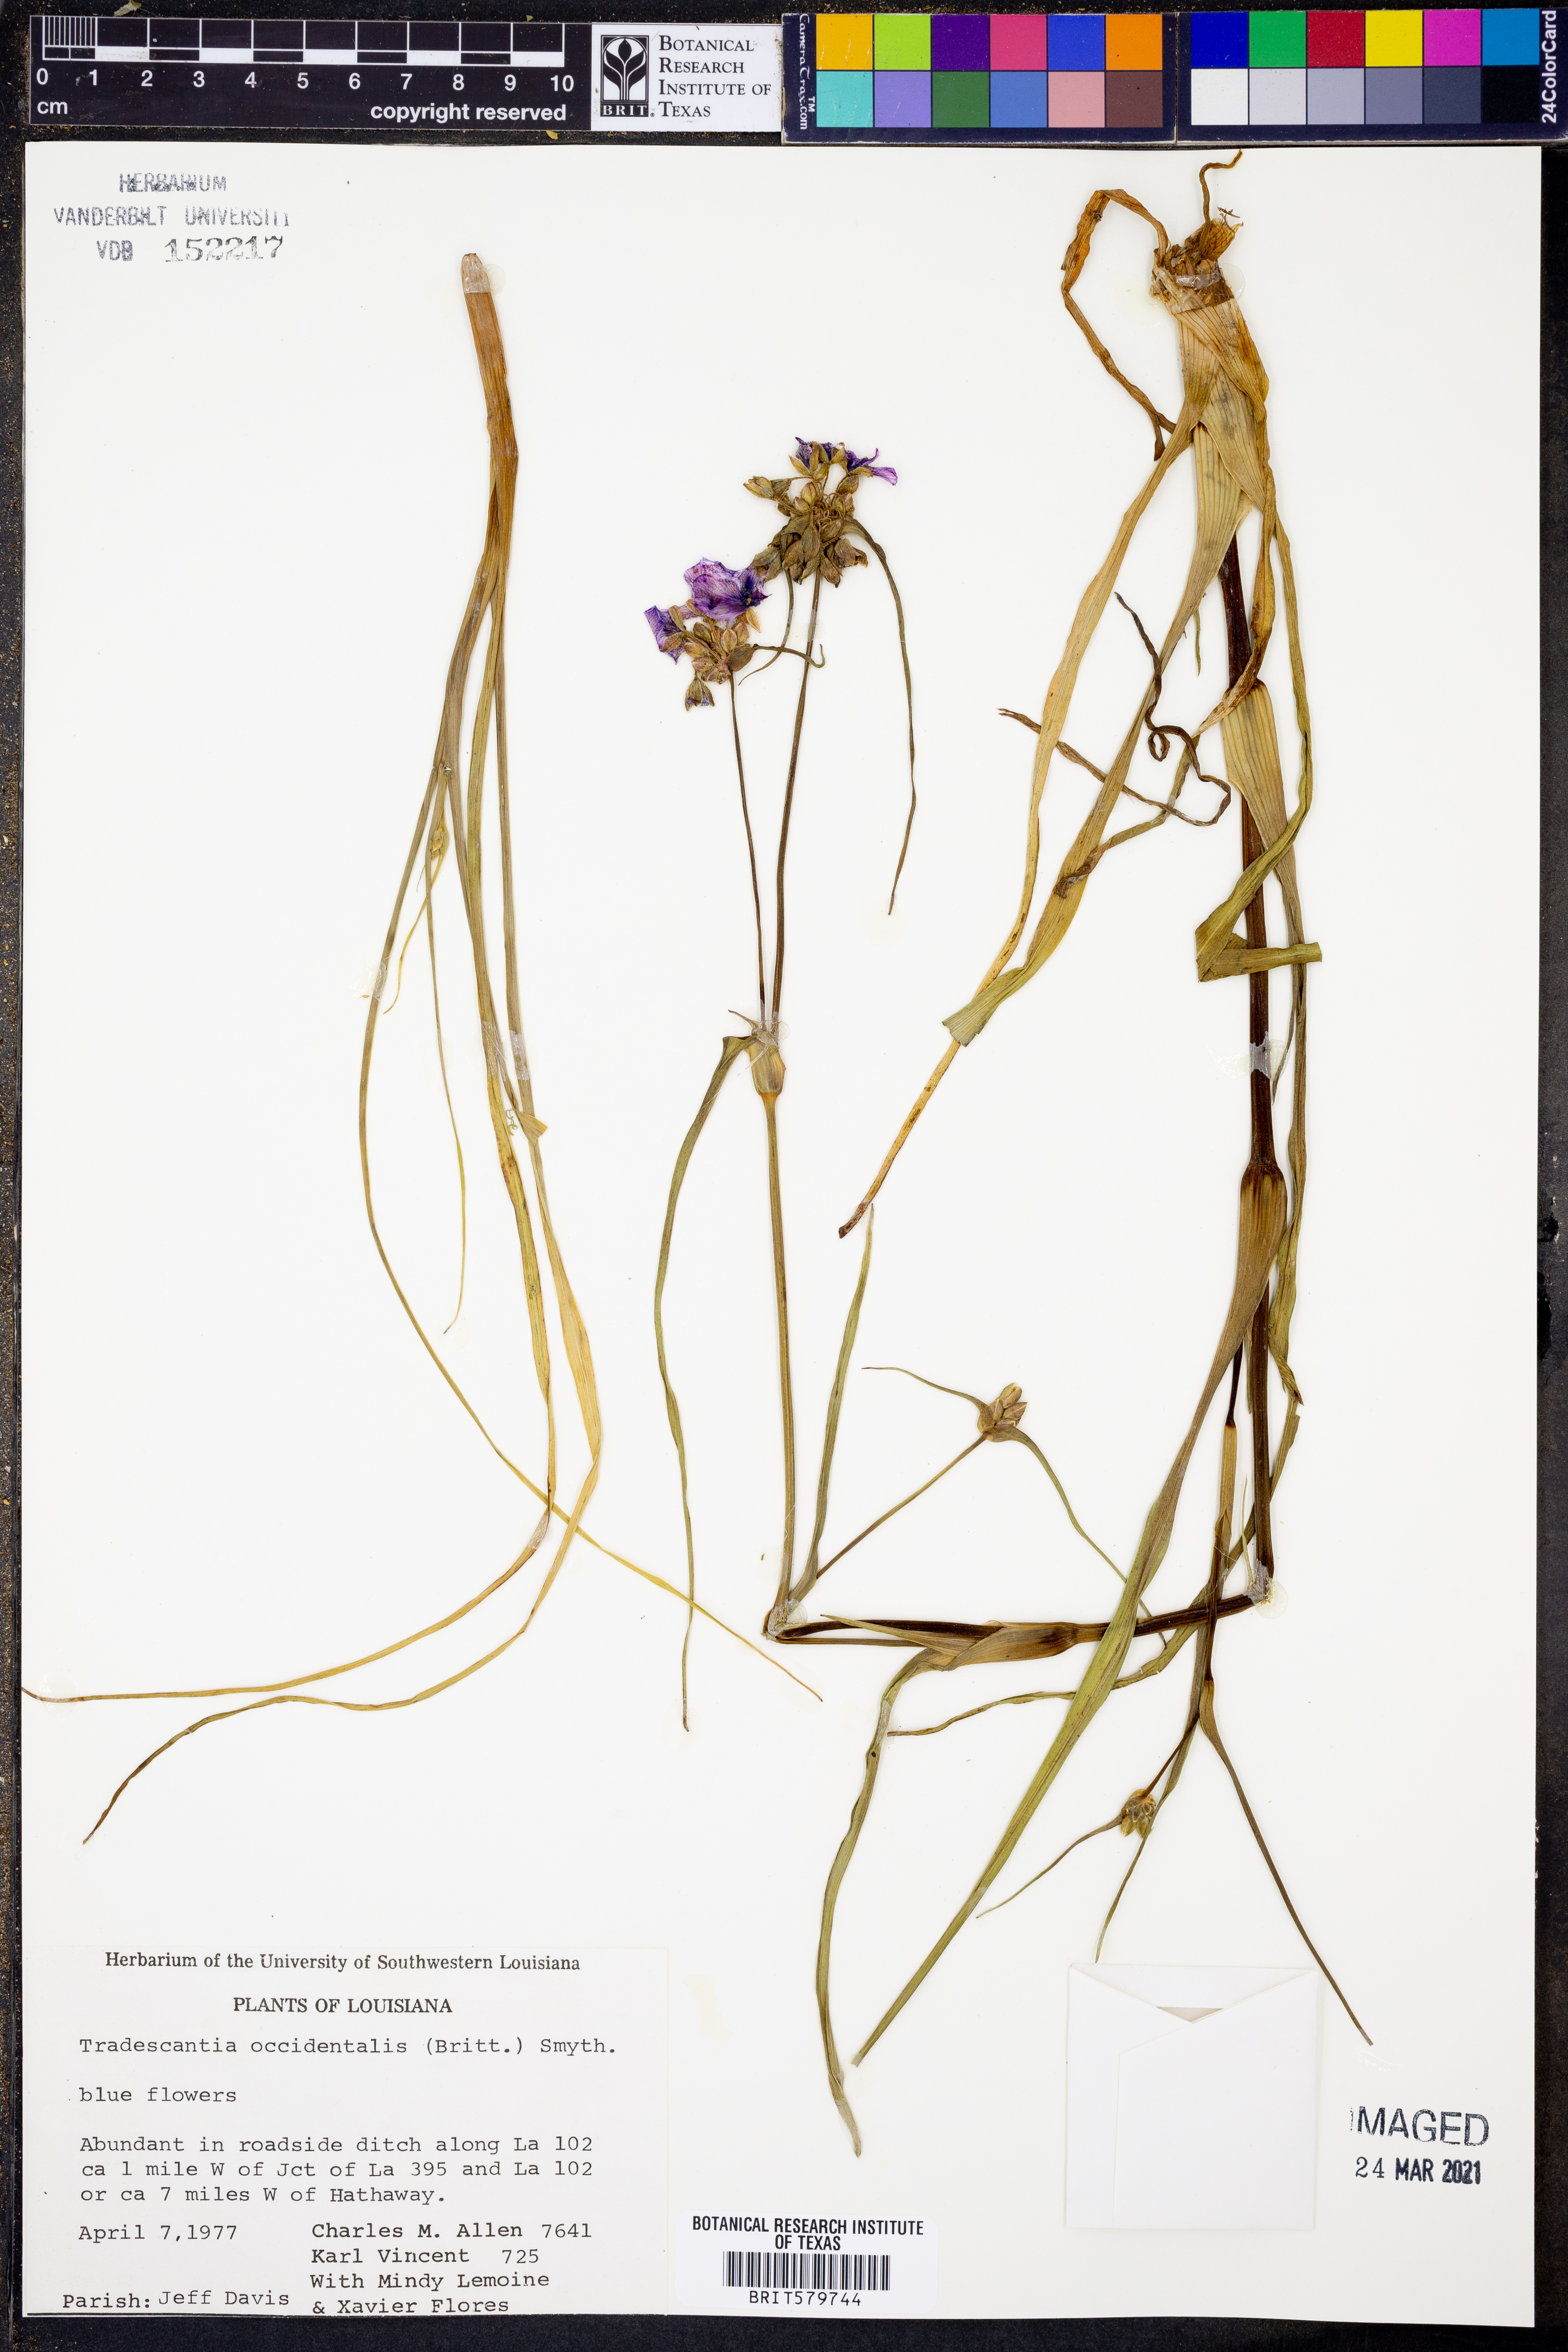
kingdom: Plantae
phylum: Tracheophyta
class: Liliopsida
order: Commelinales
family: Commelinaceae
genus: Tradescantia
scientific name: Tradescantia occidentalis
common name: Prairie spiderwort
